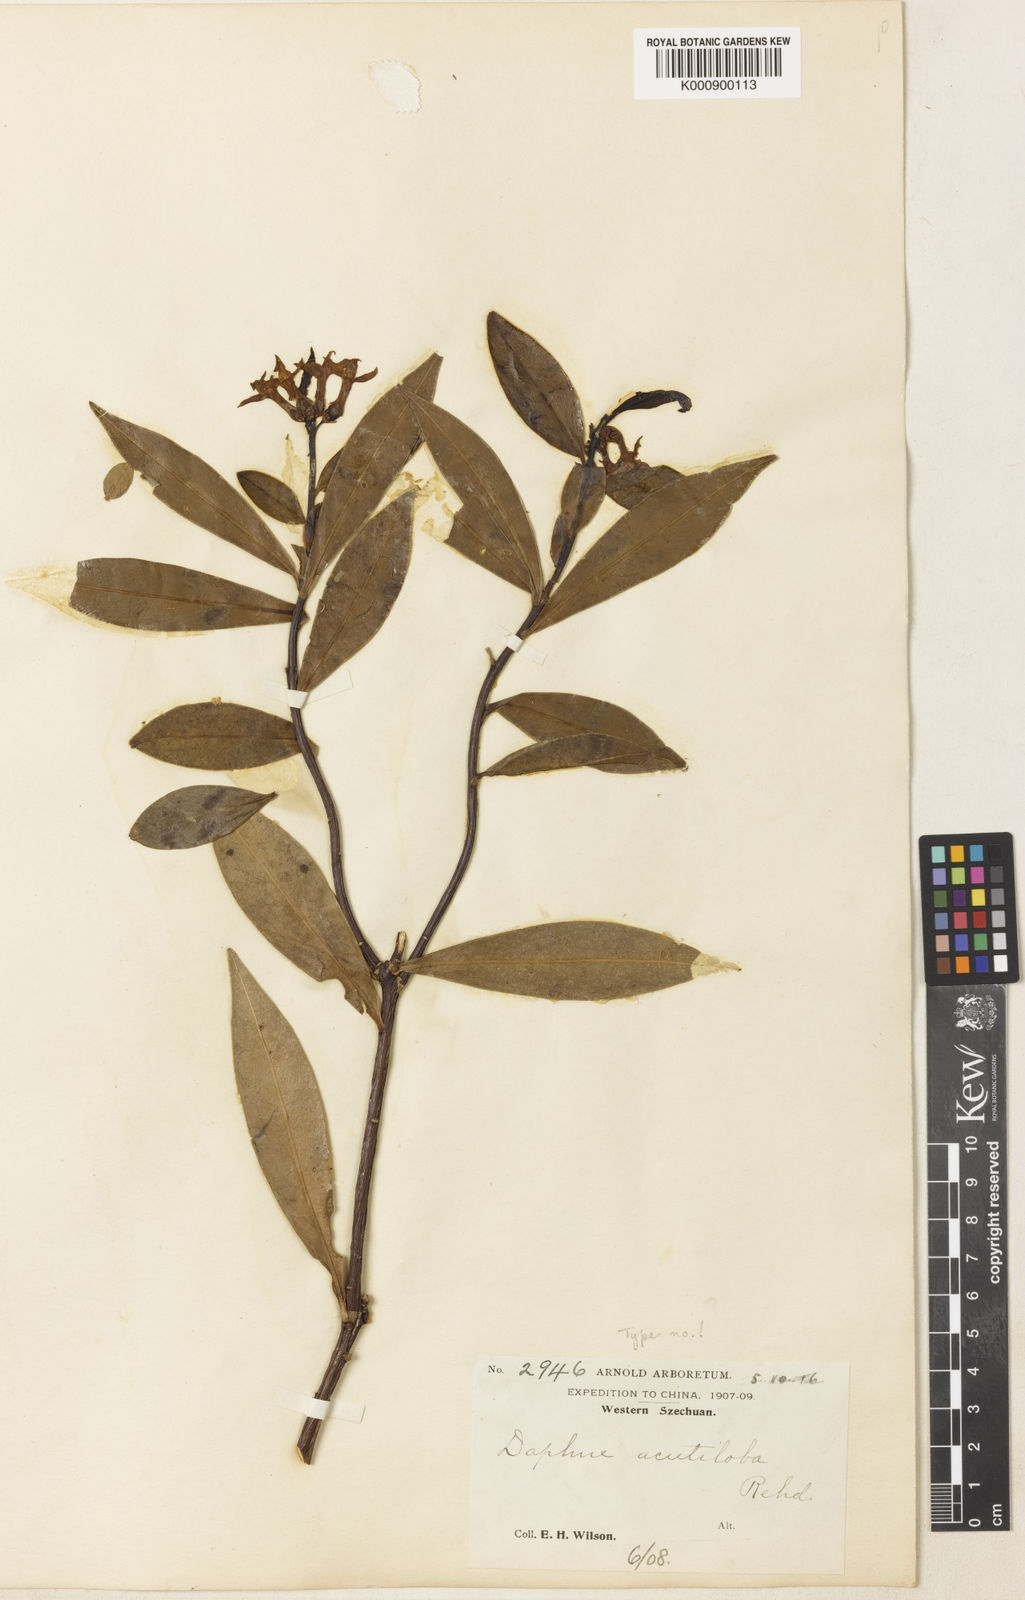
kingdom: Plantae
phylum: Tracheophyta
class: Magnoliopsida
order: Malvales
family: Thymelaeaceae
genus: Daphne
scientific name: Daphne acutiloba
